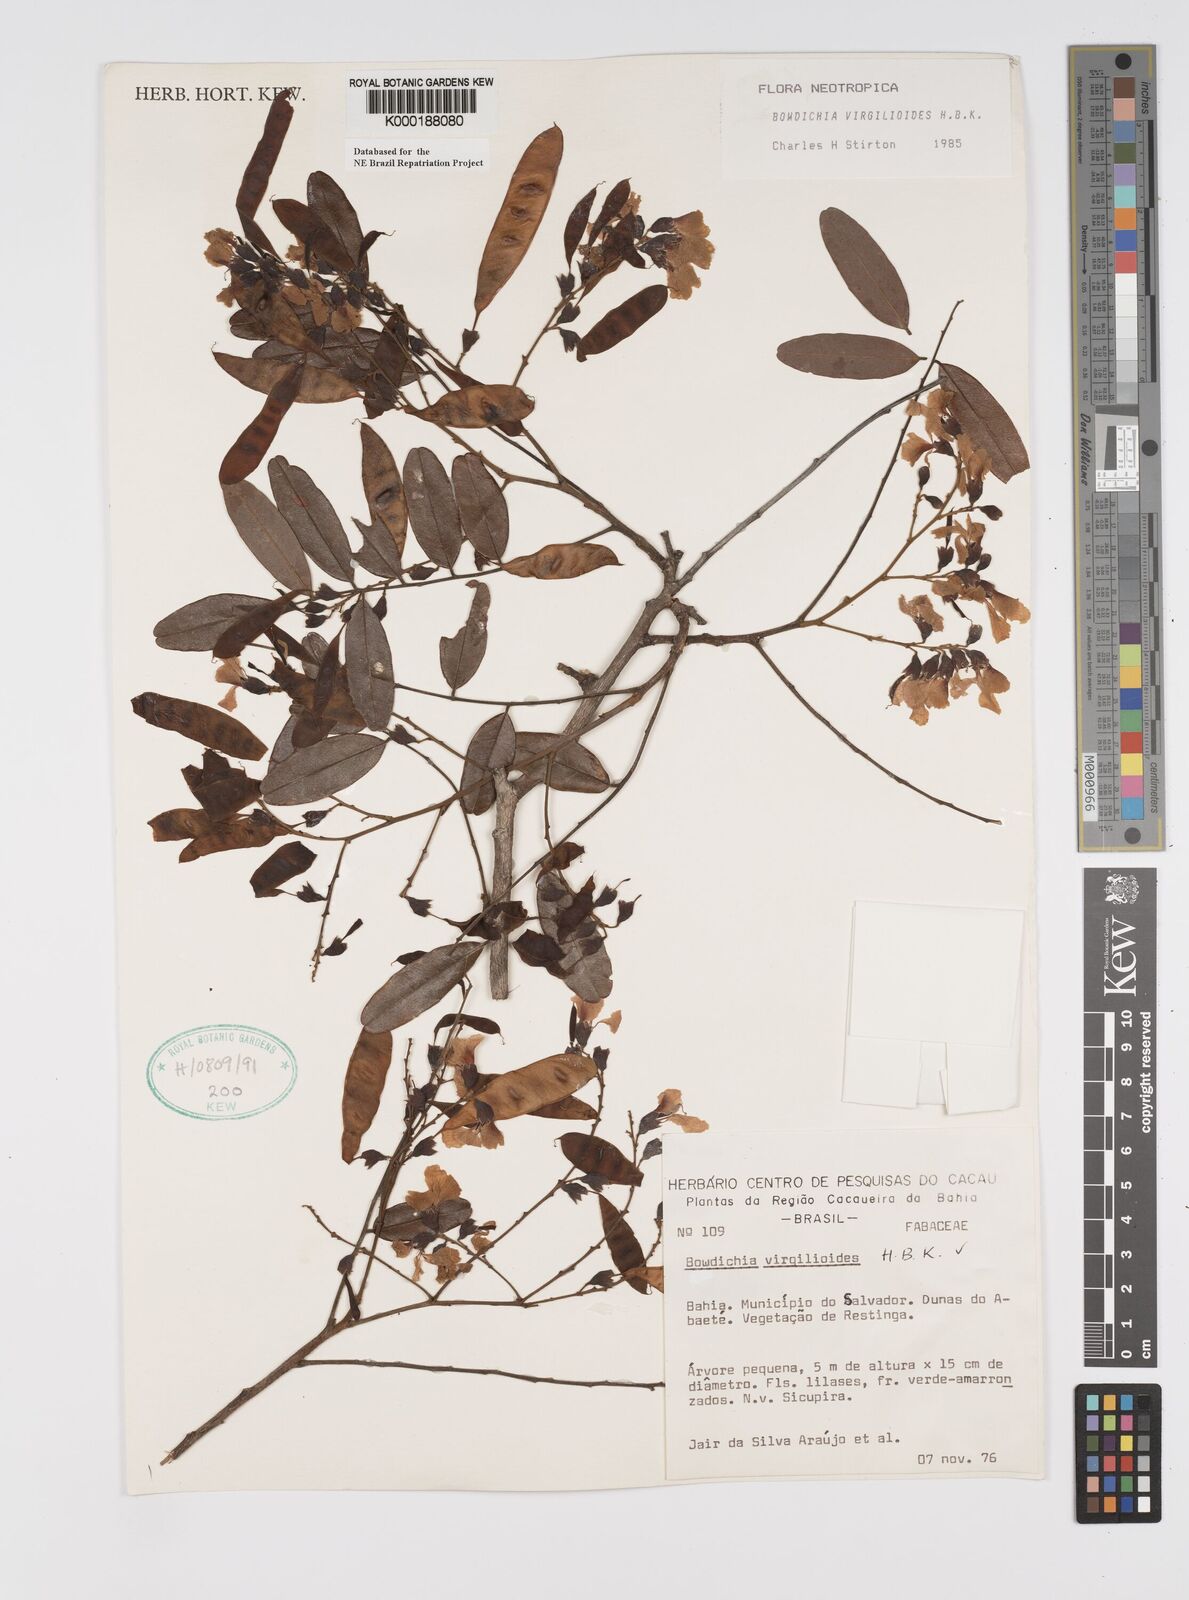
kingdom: Plantae
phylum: Tracheophyta
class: Magnoliopsida
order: Fabales
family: Fabaceae
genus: Bowdichia
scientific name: Bowdichia virgilioides
